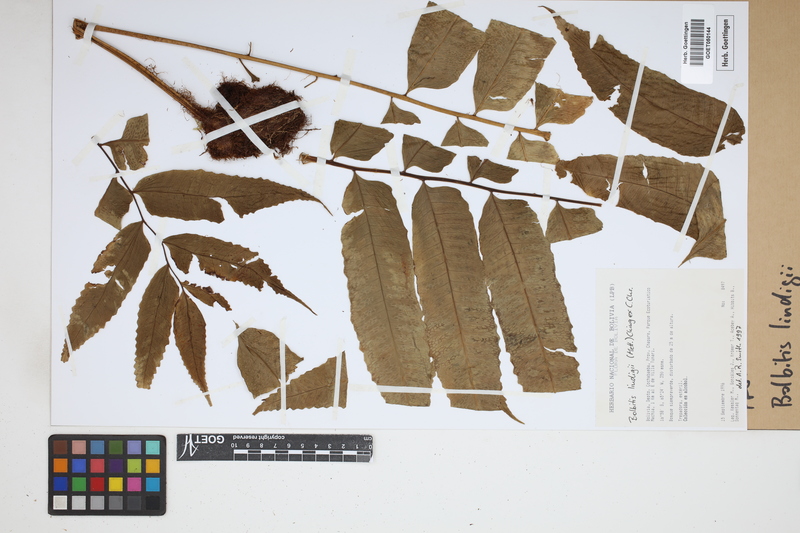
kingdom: Plantae
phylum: Tracheophyta
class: Polypodiopsida
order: Polypodiales
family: Dryopteridaceae
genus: Mickelia
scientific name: Mickelia lindigii
